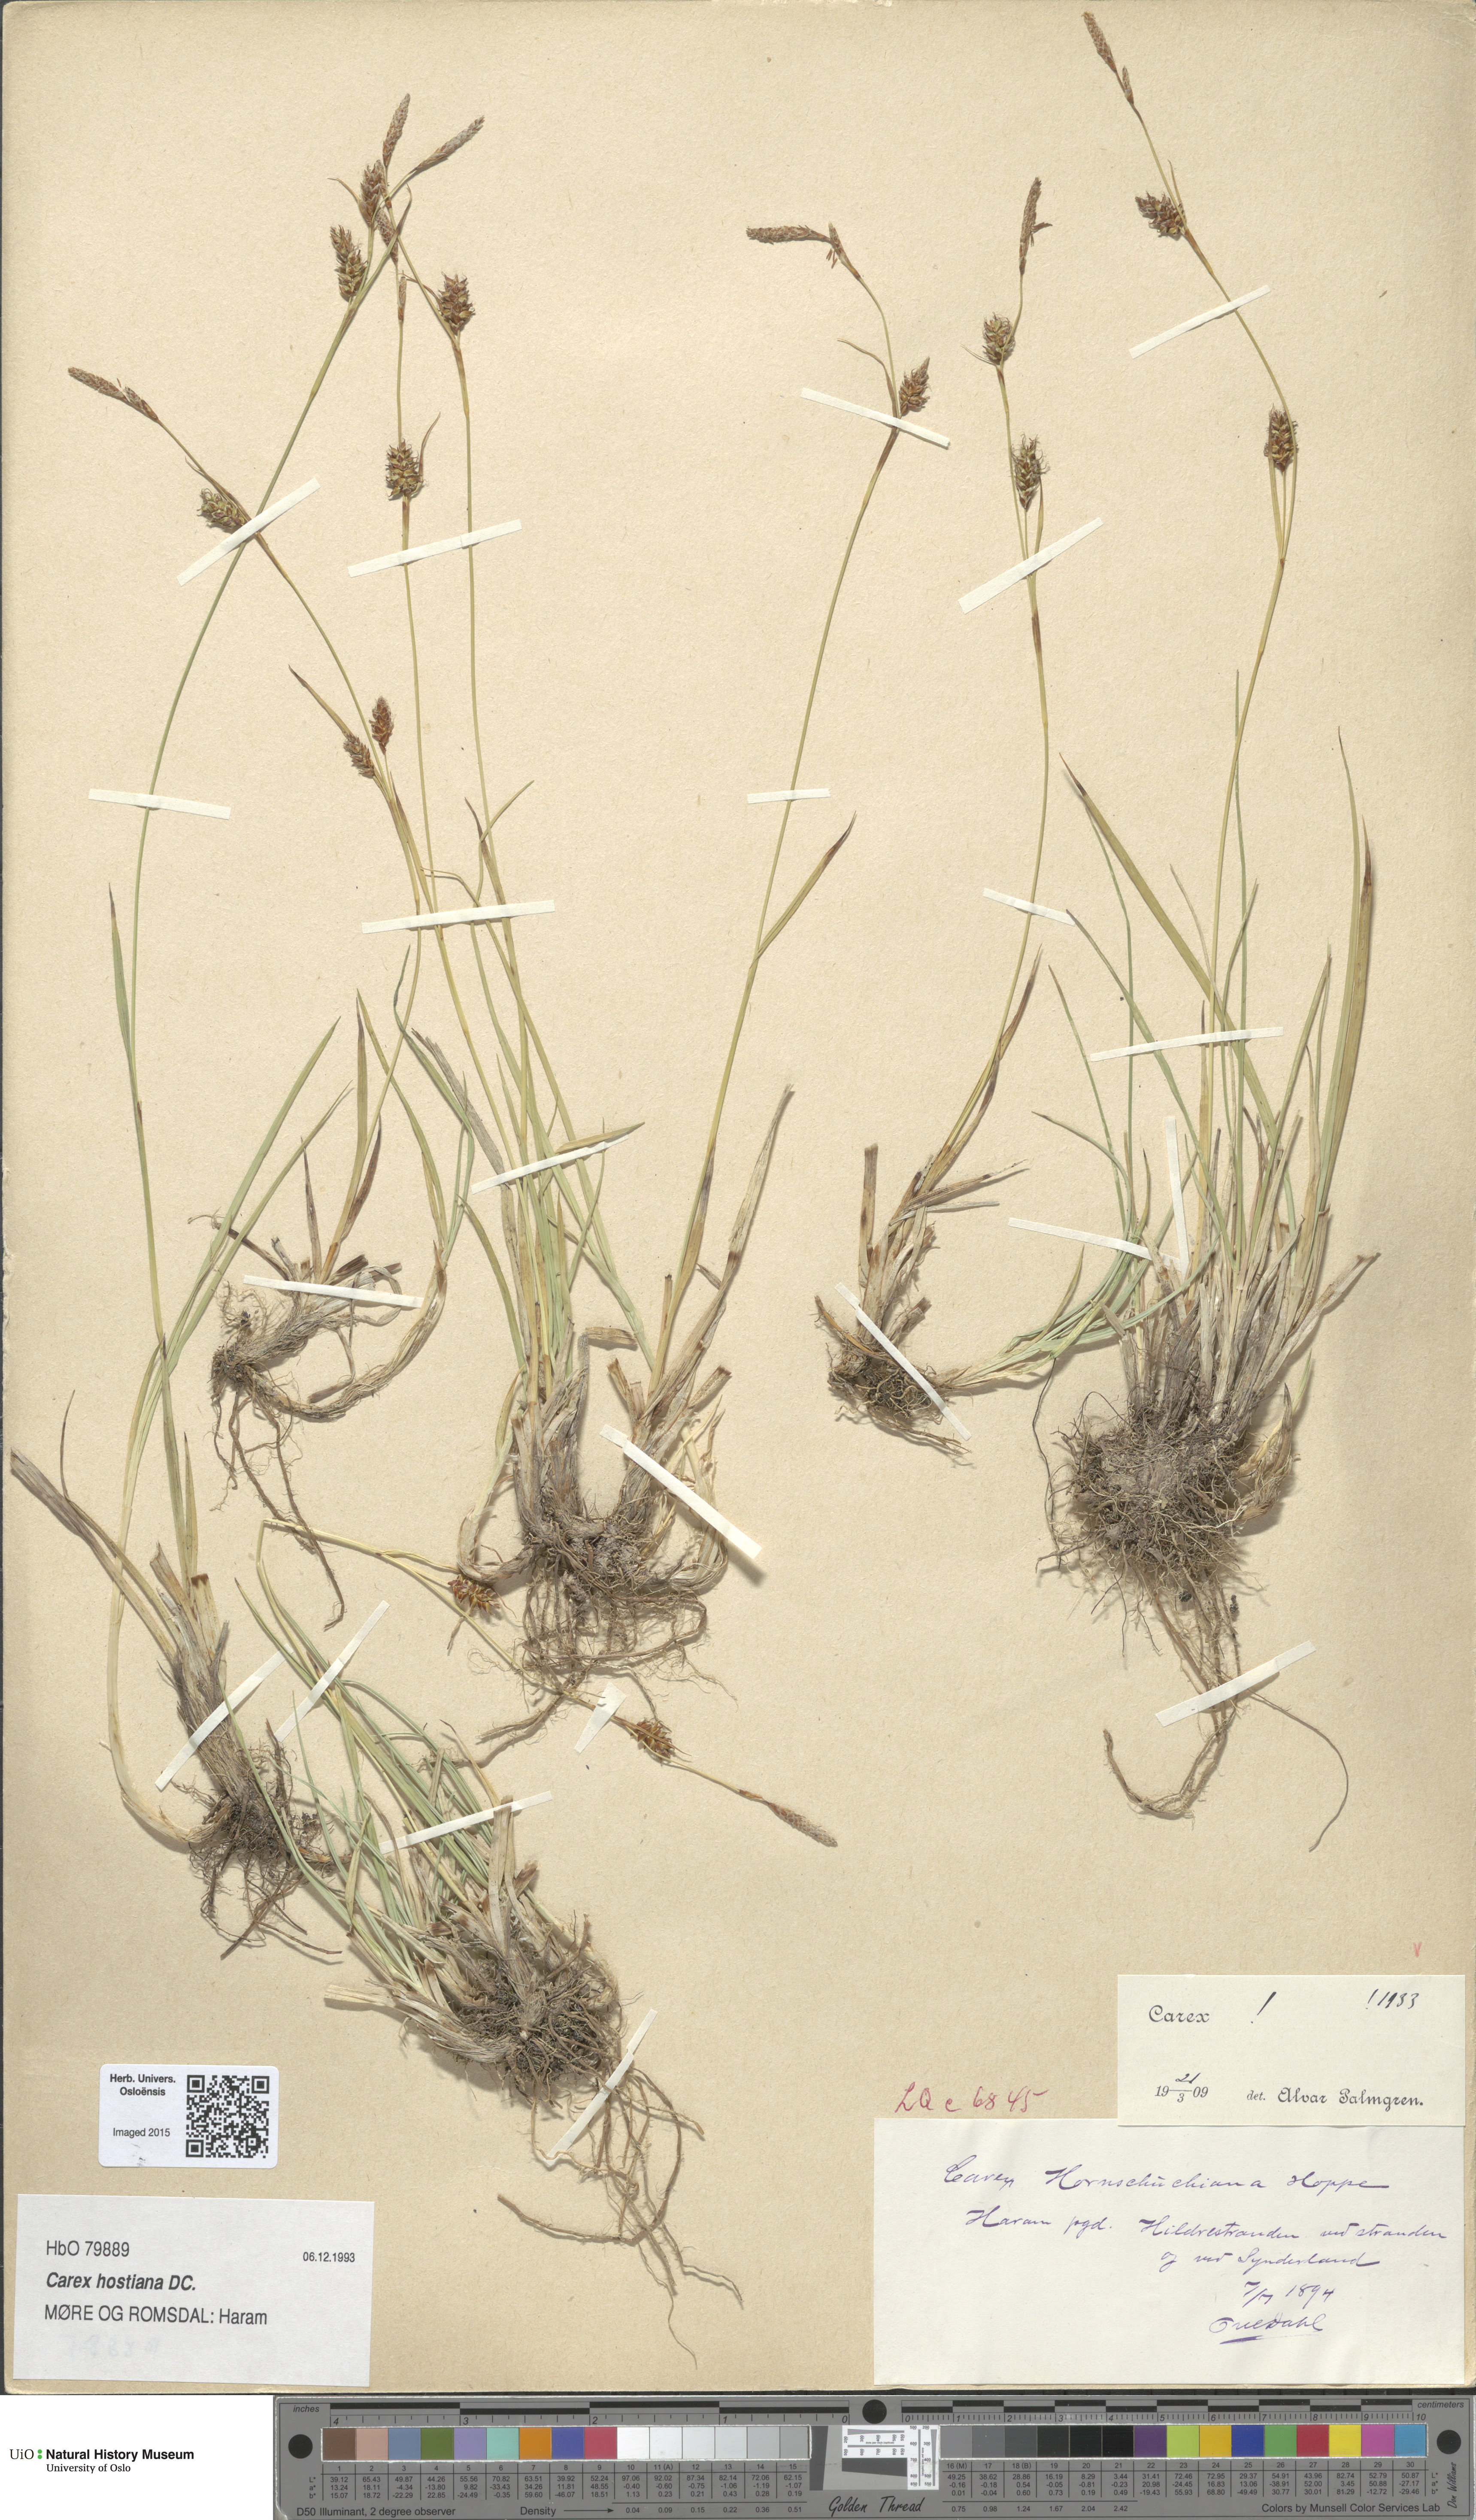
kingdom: Plantae
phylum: Tracheophyta
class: Liliopsida
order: Poales
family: Cyperaceae
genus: Carex
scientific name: Carex hostiana
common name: Tawny sedge
